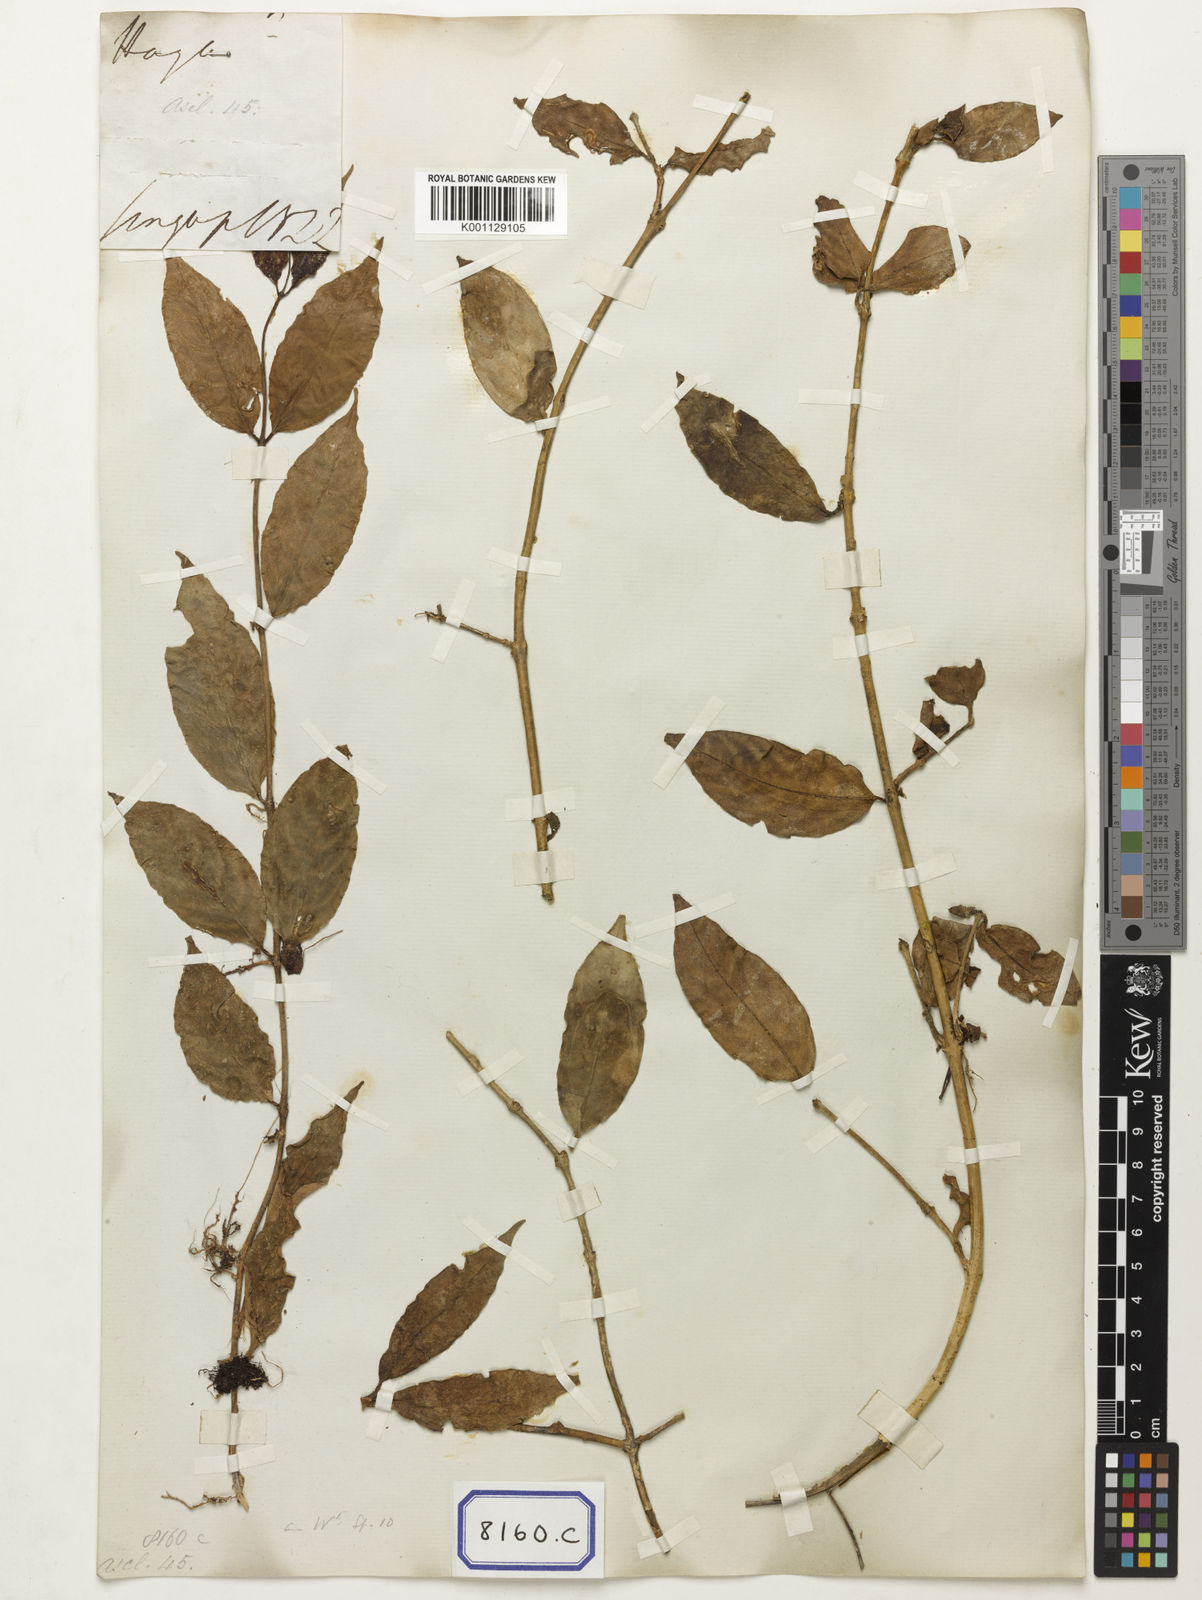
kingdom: Plantae
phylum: Tracheophyta
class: Magnoliopsida
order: Gentianales
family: Apocynaceae
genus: Hoya
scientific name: Hoya ovalifolia
